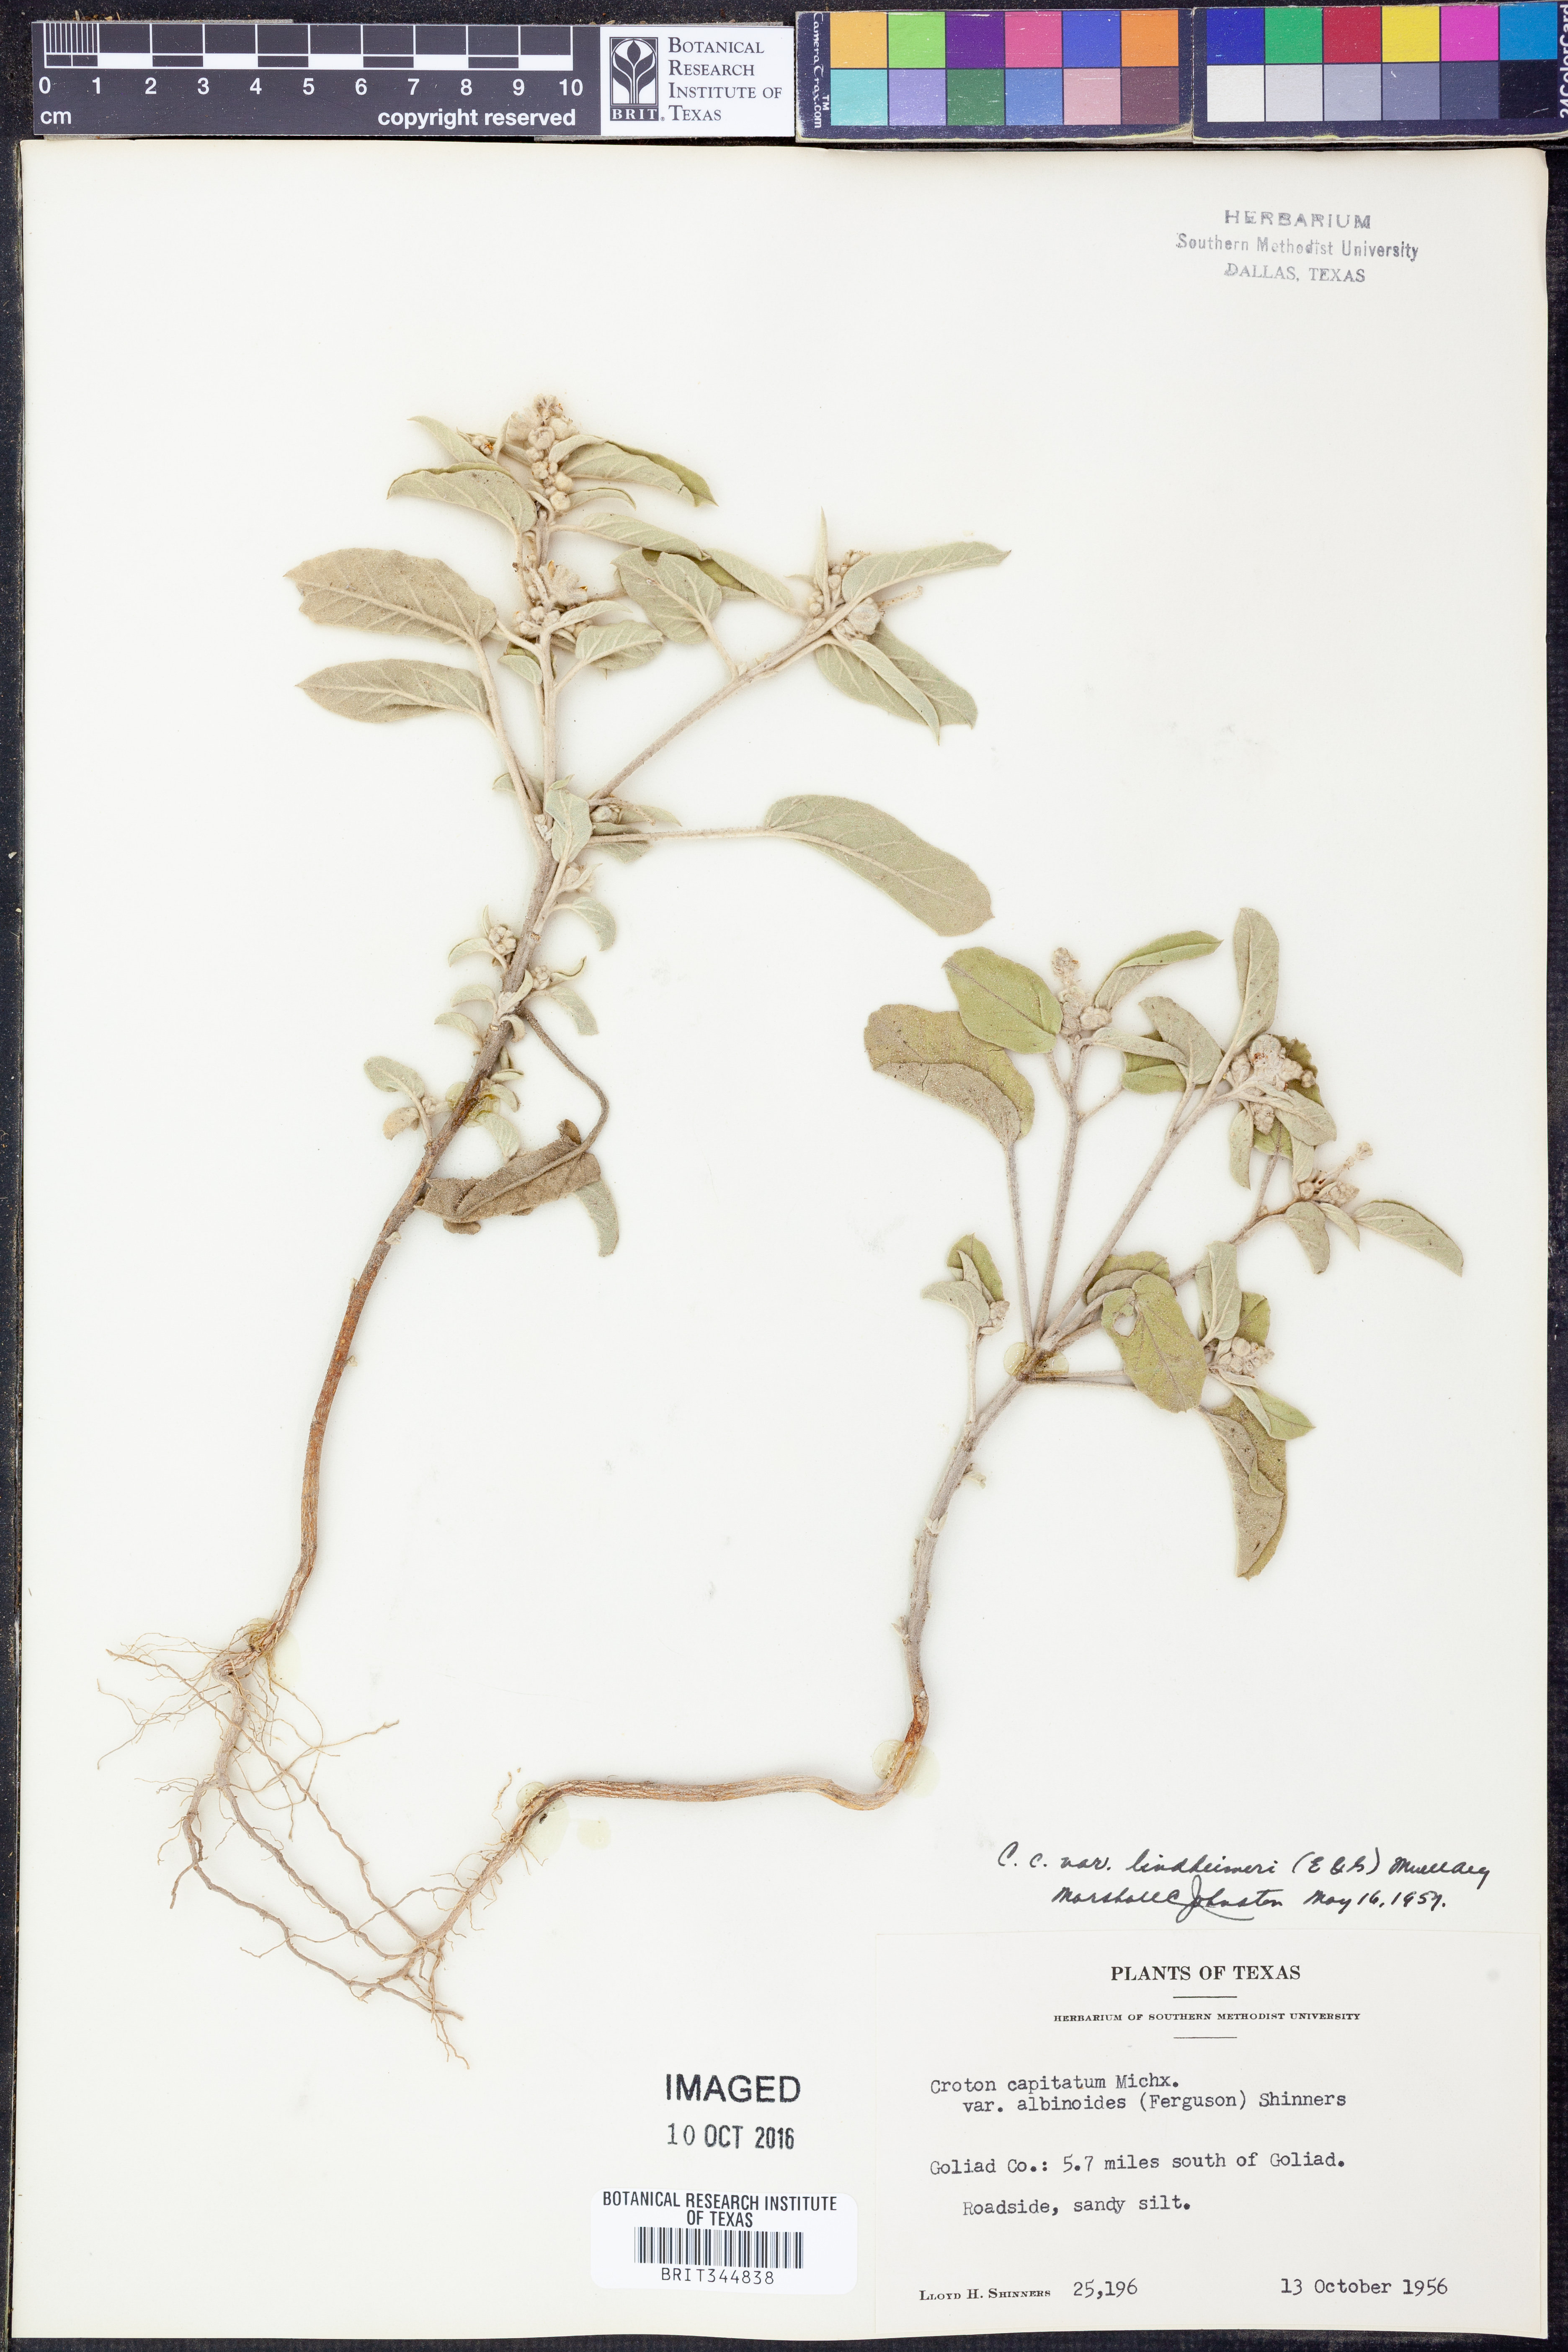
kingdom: Plantae
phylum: Tracheophyta
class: Magnoliopsida
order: Malpighiales
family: Euphorbiaceae
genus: Croton
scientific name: Croton lindheimeri
